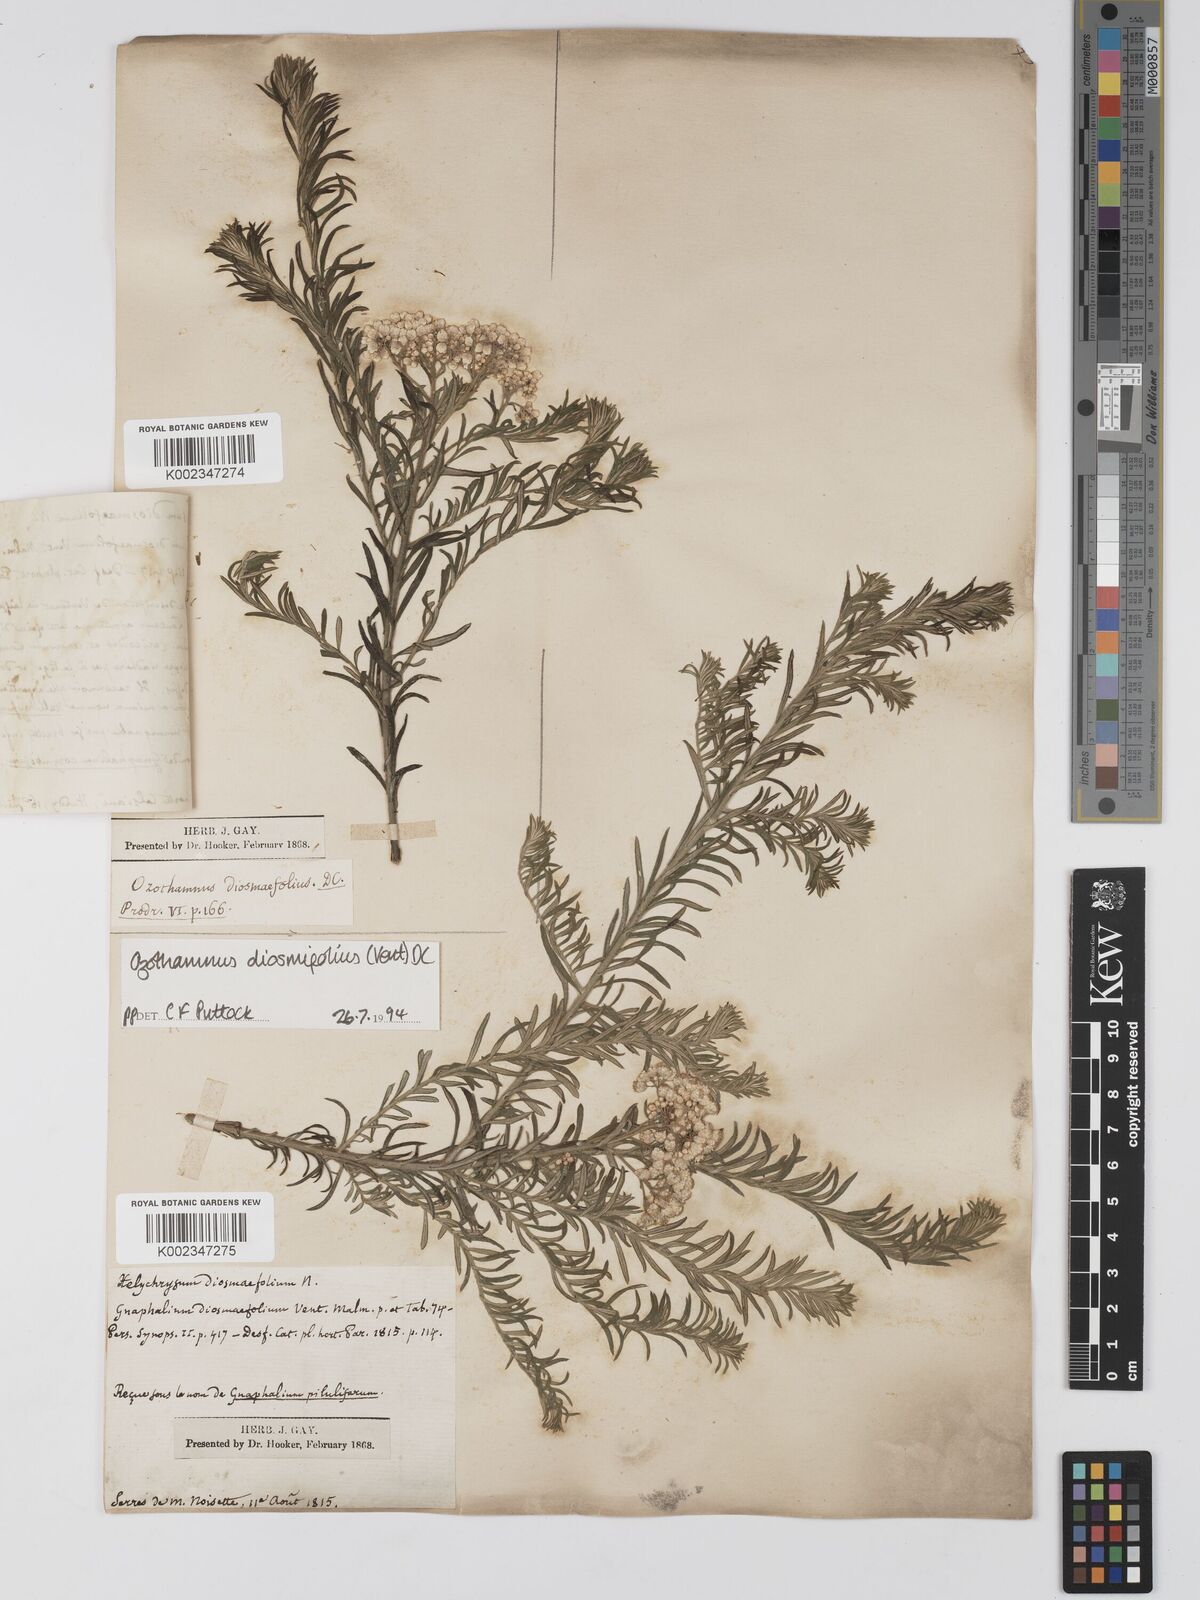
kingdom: Plantae
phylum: Tracheophyta
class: Magnoliopsida
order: Asterales
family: Asteraceae
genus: Ozothamnus
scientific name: Ozothamnus diosmifolius
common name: White-dogwood
